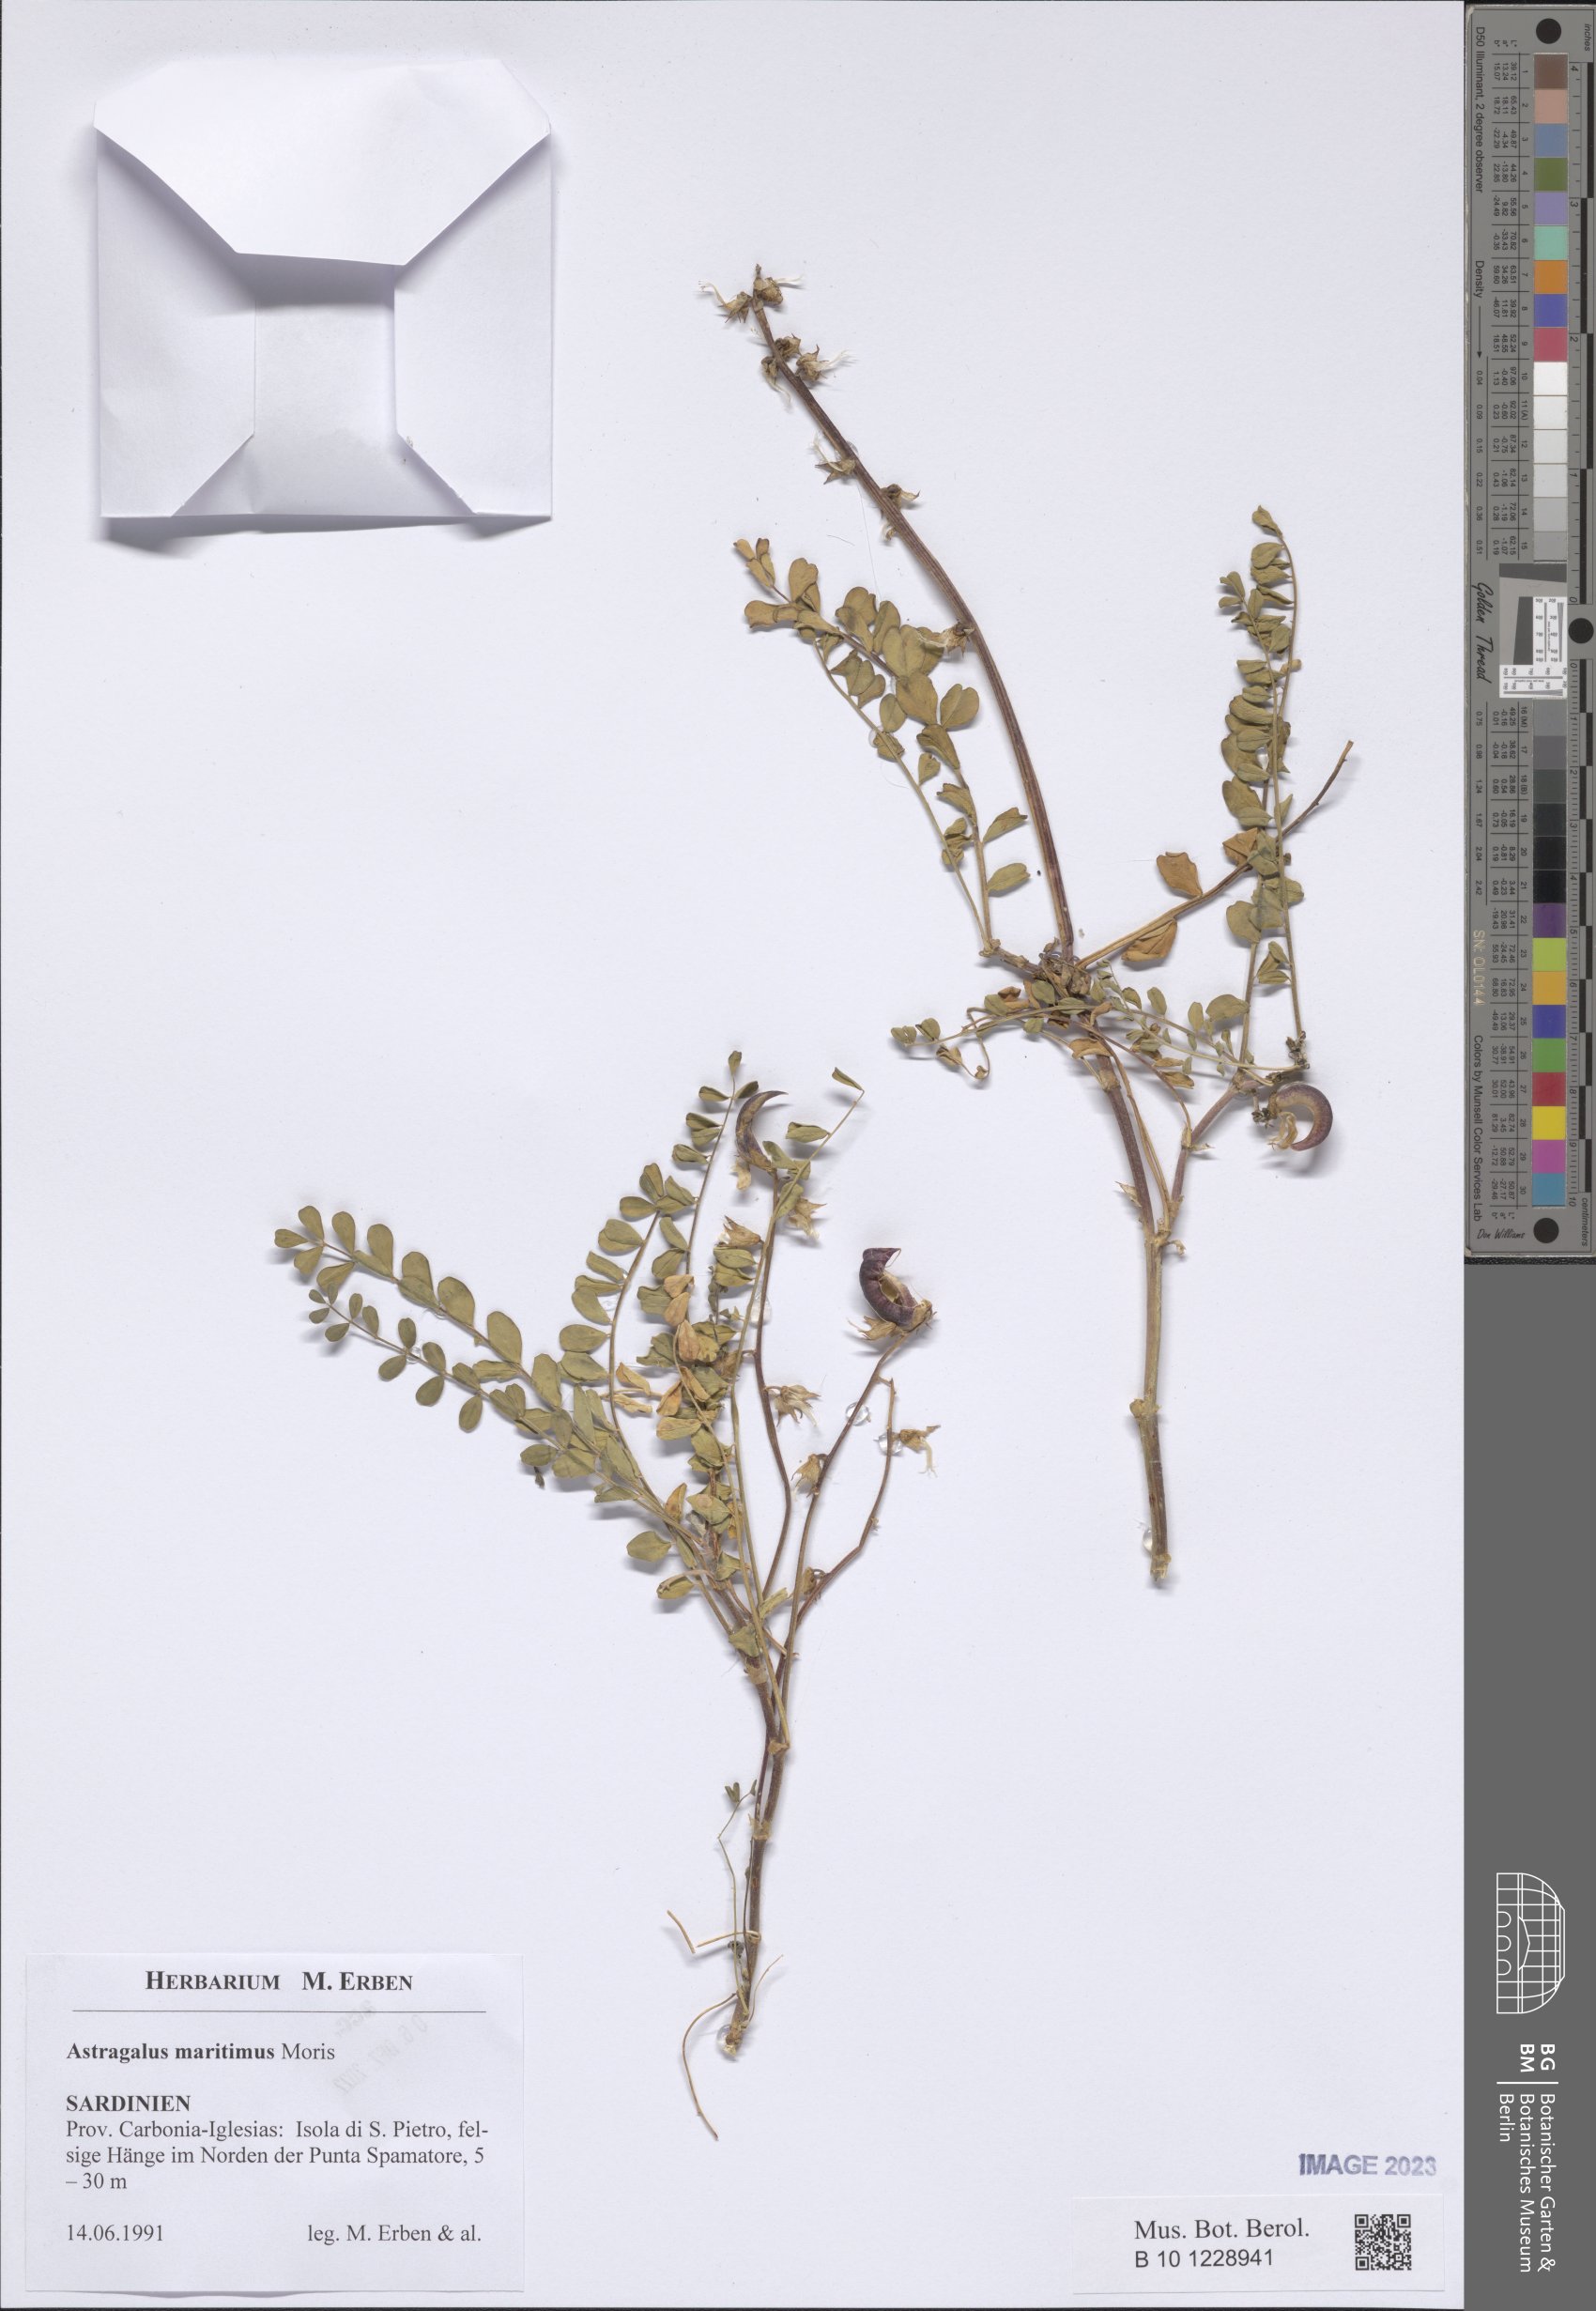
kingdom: Plantae
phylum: Tracheophyta
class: Magnoliopsida
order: Fabales
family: Fabaceae
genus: Astragalus
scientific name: Astragalus maritimus
